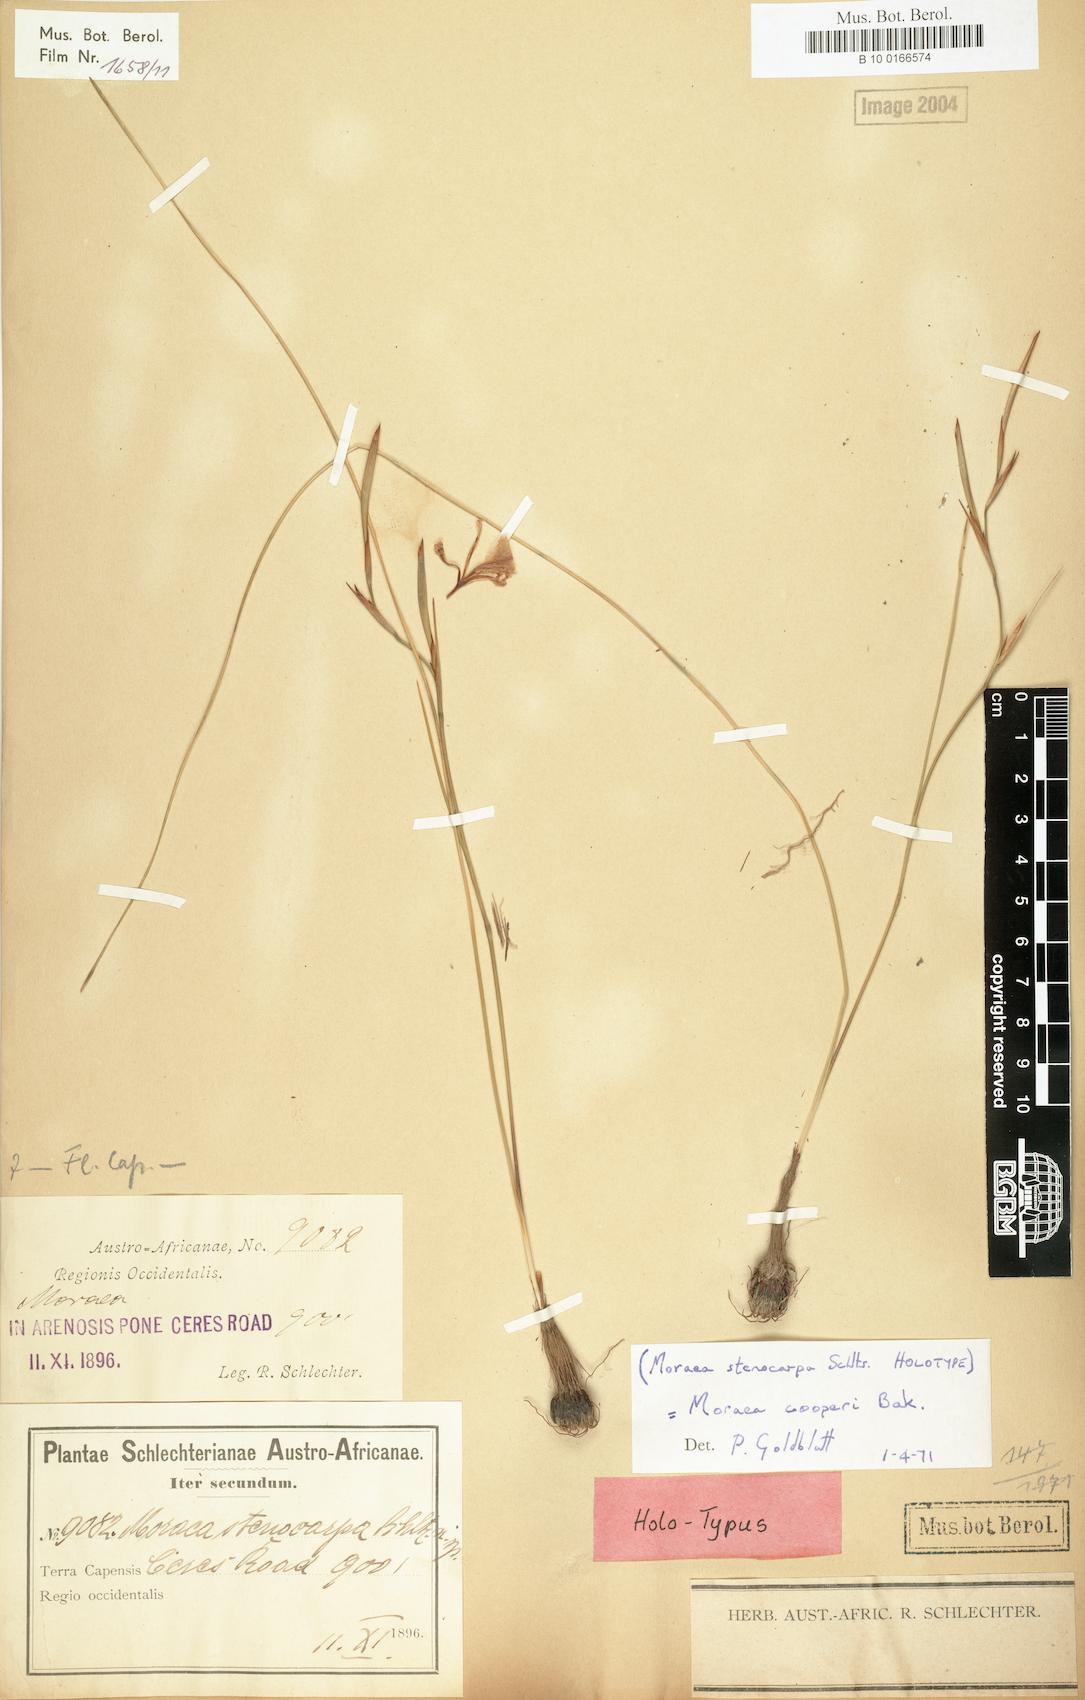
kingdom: Plantae
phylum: Tracheophyta
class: Liliopsida
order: Asparagales
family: Iridaceae
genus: Moraea
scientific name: Moraea cooperi
